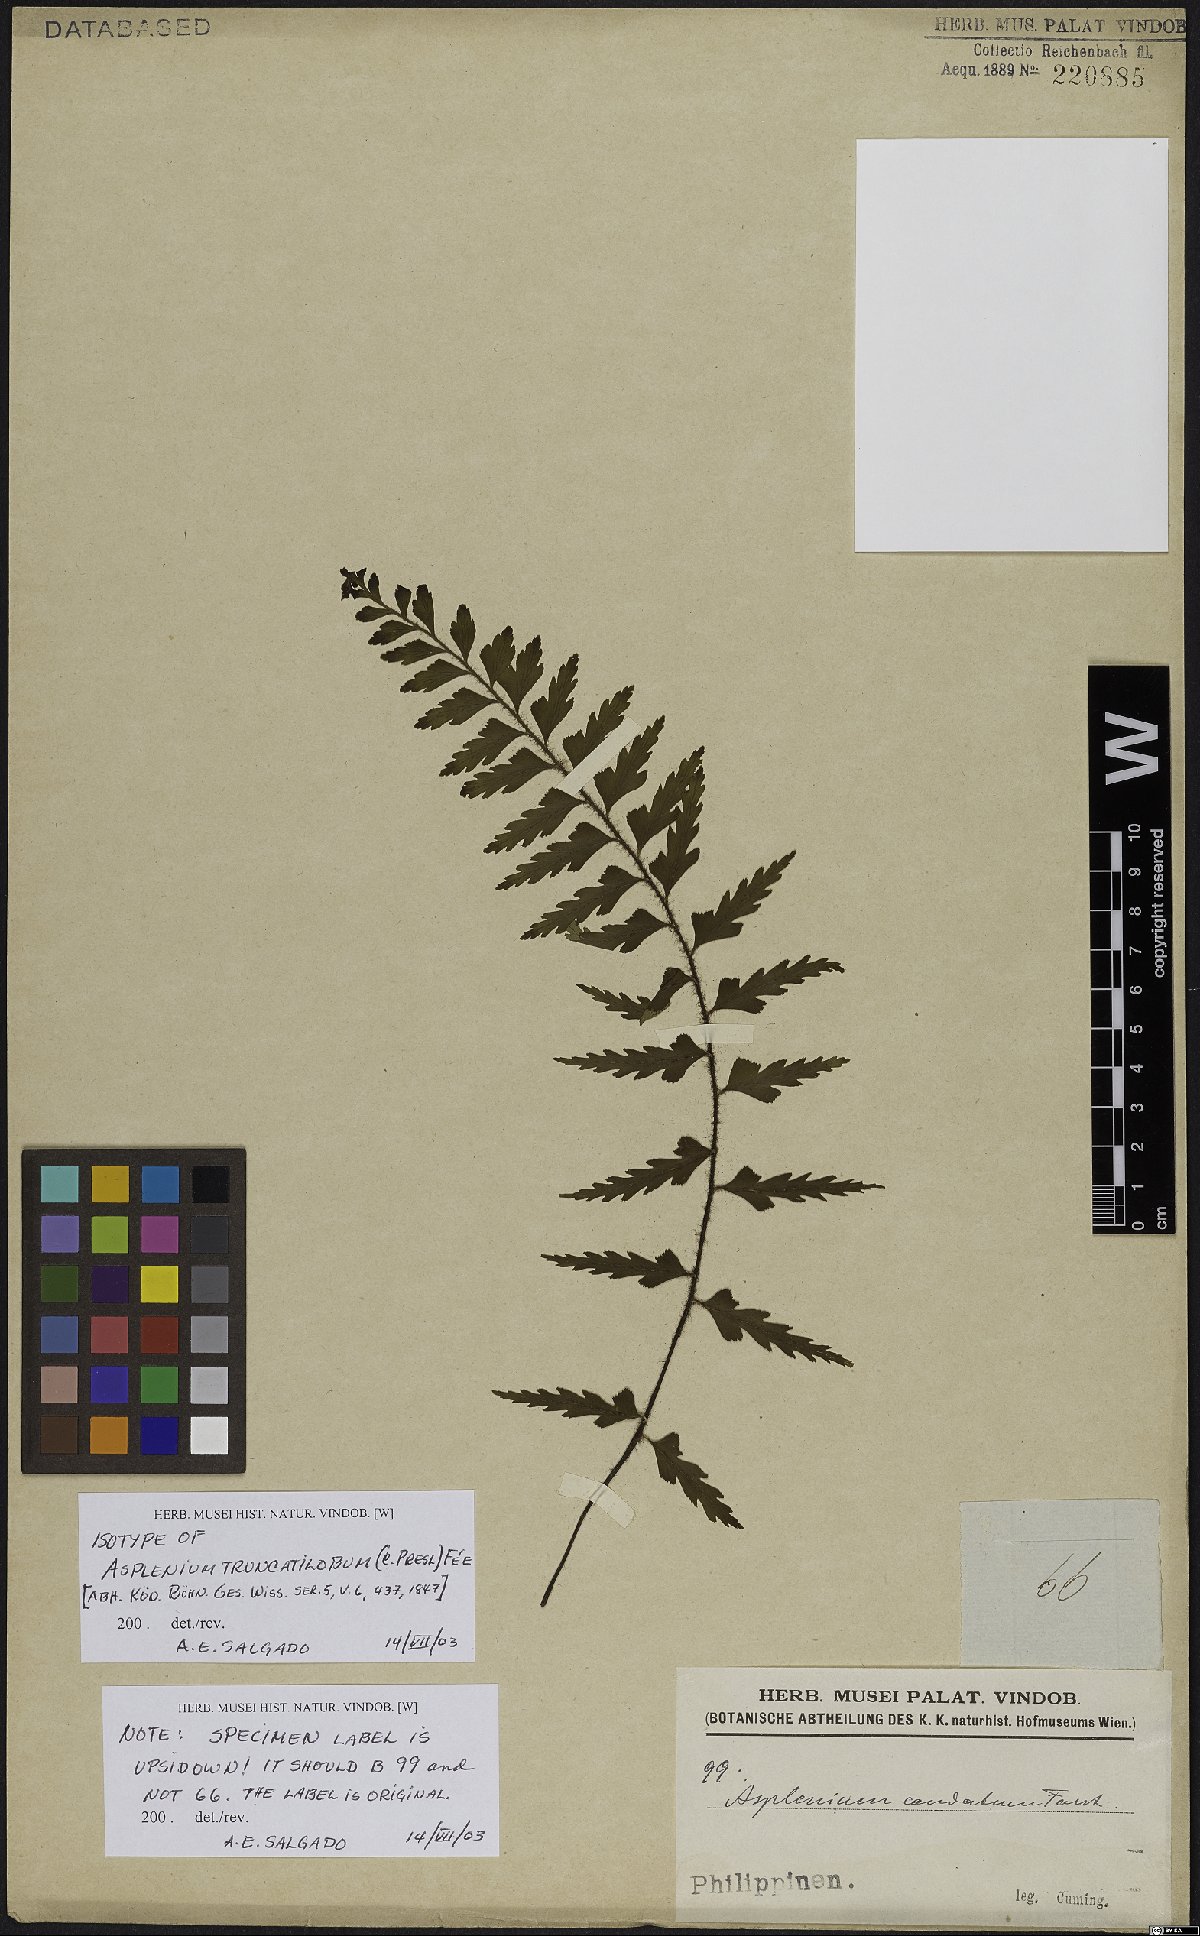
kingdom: Plantae
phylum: Tracheophyta
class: Polypodiopsida
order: Polypodiales
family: Aspleniaceae
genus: Asplenium
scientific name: Asplenium truncatilobum
